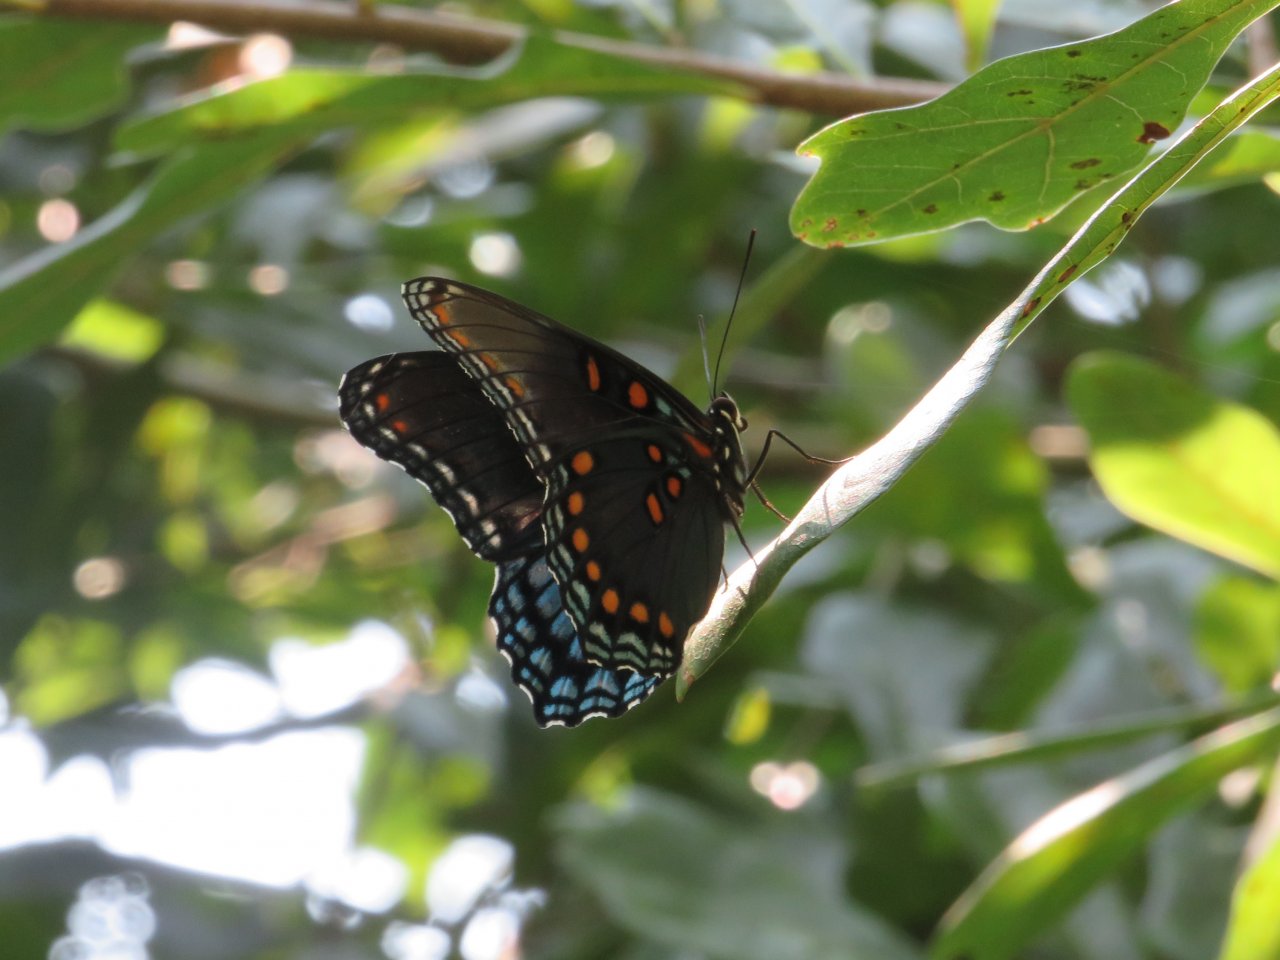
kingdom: Animalia
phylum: Arthropoda
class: Insecta
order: Lepidoptera
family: Nymphalidae
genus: Limenitis
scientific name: Limenitis arthemis
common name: Red-spotted Admiral
